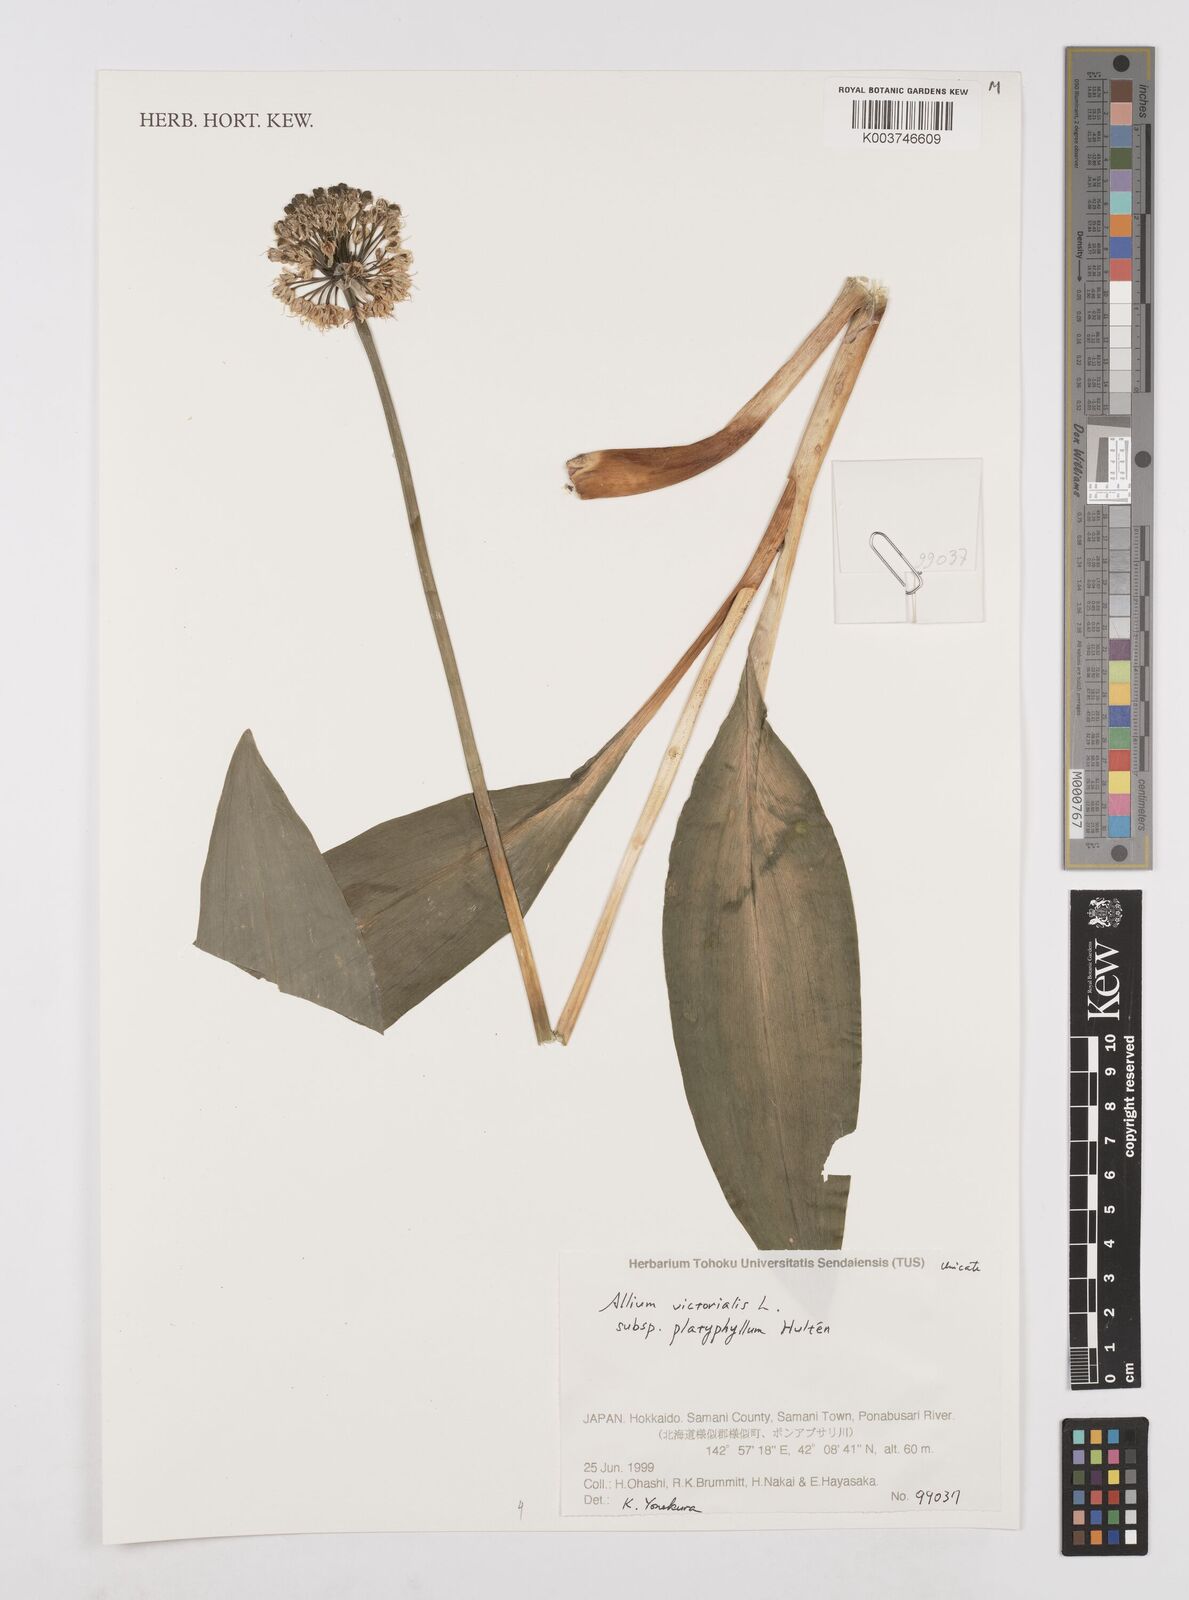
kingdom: Plantae
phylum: Tracheophyta
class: Liliopsida
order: Asparagales
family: Amaryllidaceae
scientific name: Amaryllidaceae
